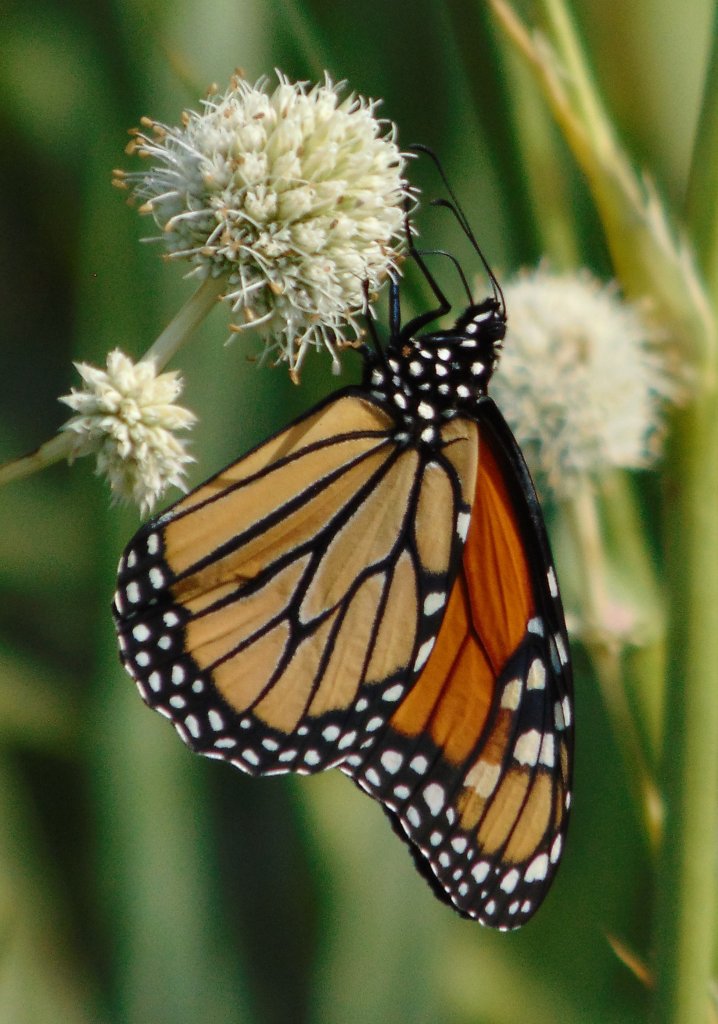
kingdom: Animalia
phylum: Arthropoda
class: Insecta
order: Lepidoptera
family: Nymphalidae
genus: Danaus
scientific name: Danaus plexippus
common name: Monarch
